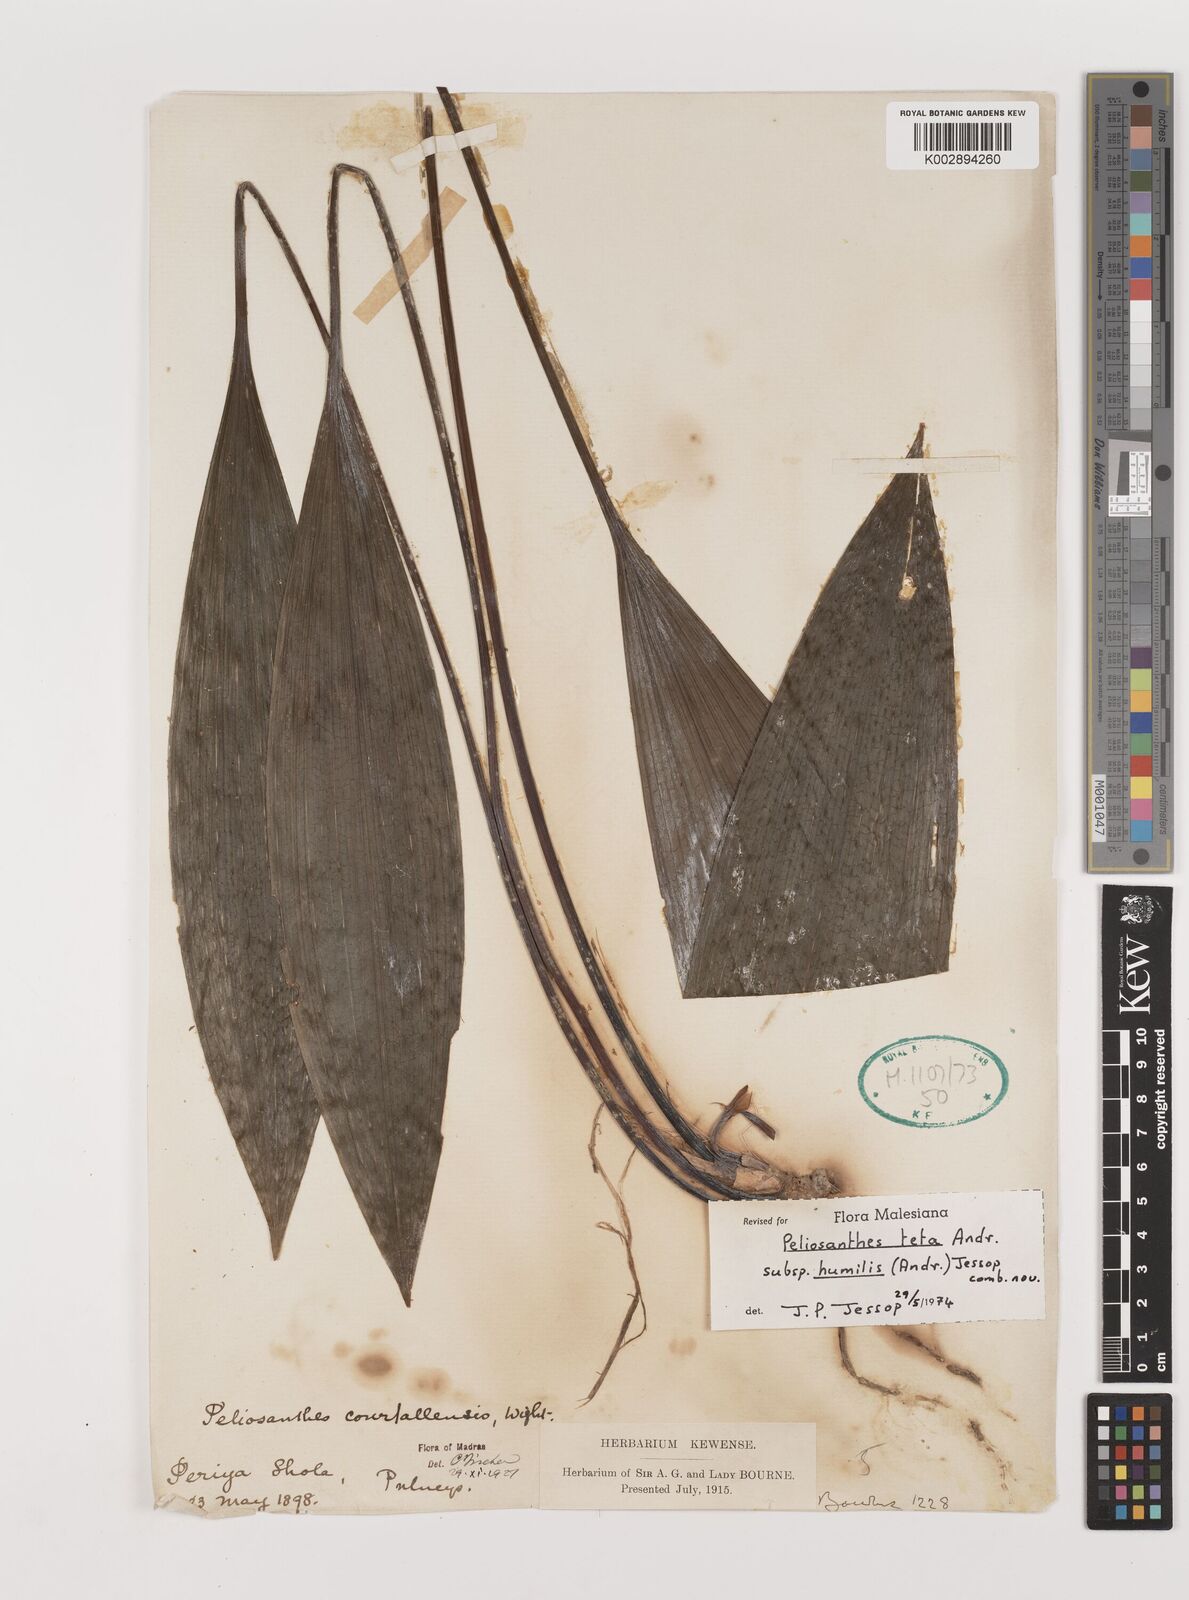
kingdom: Plantae
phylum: Tracheophyta
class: Liliopsida
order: Asparagales
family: Asparagaceae
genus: Peliosanthes
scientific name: Peliosanthes teta
